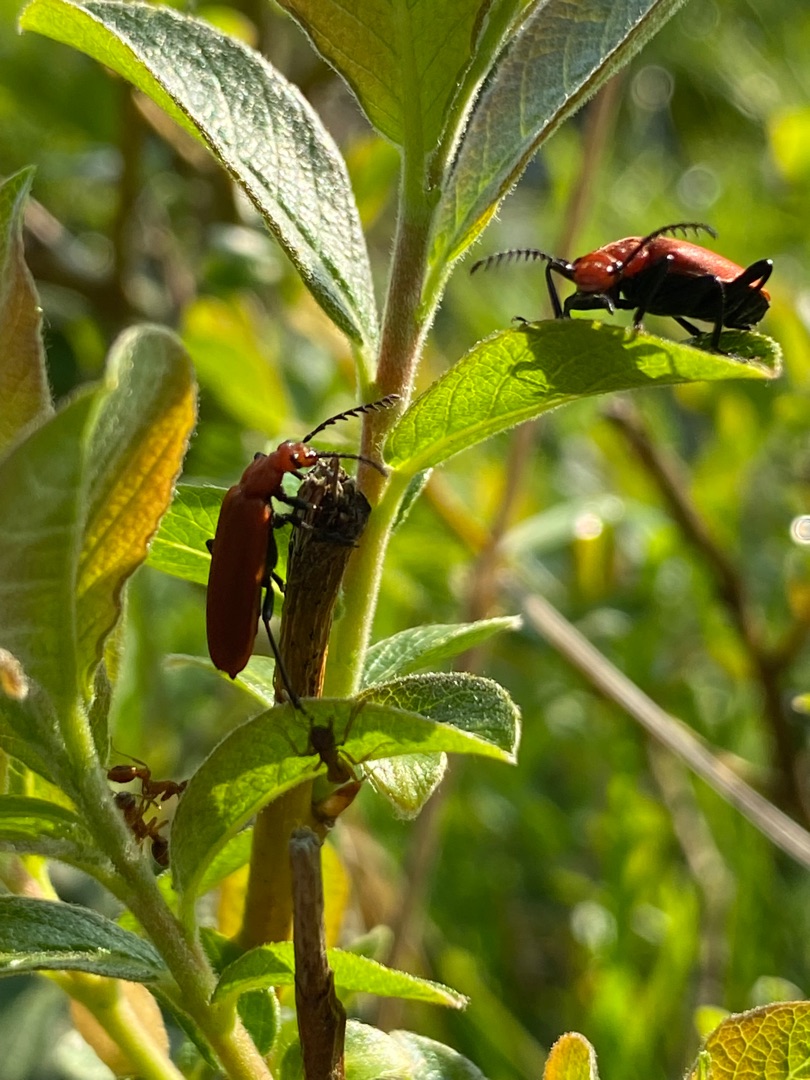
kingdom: Animalia
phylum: Arthropoda
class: Insecta
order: Coleoptera
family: Pyrochroidae
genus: Pyrochroa
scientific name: Pyrochroa serraticornis
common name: Rødhovedet kardinalbille
